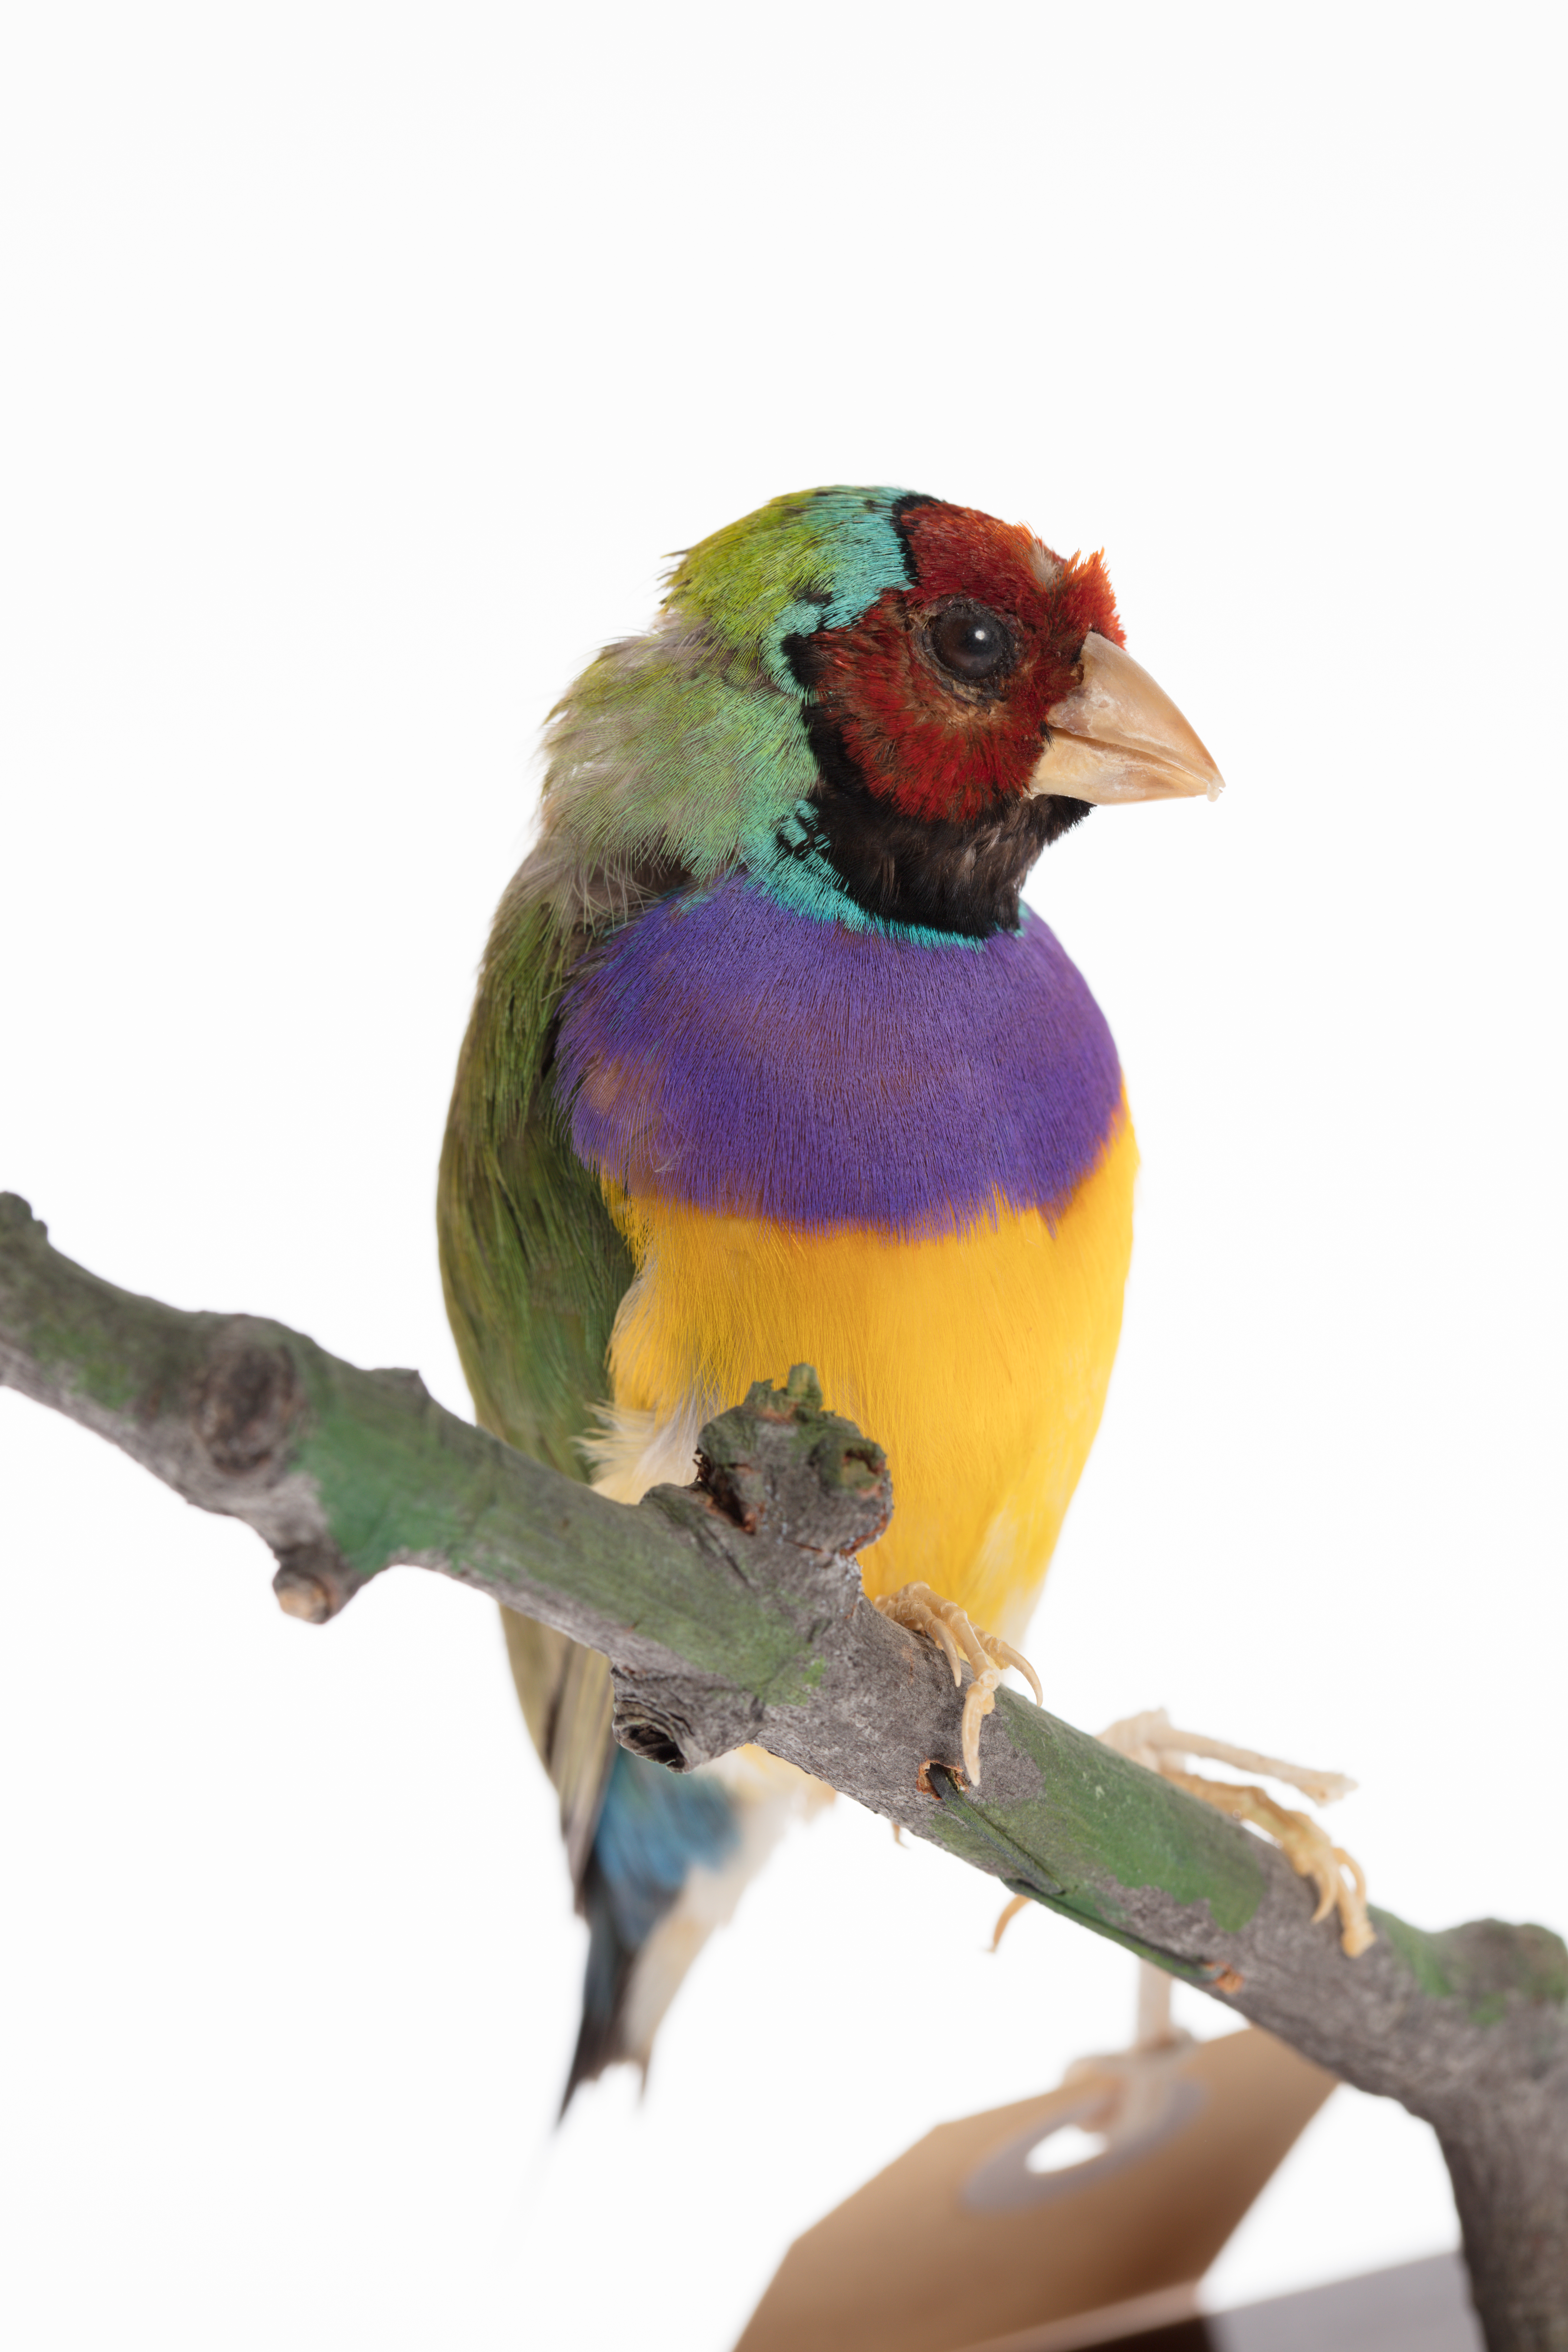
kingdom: Animalia
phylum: Chordata
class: Aves
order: Passeriformes
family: Estrildidae
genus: Erythrura
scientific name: Erythrura gouldiae
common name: Gouldian finch
